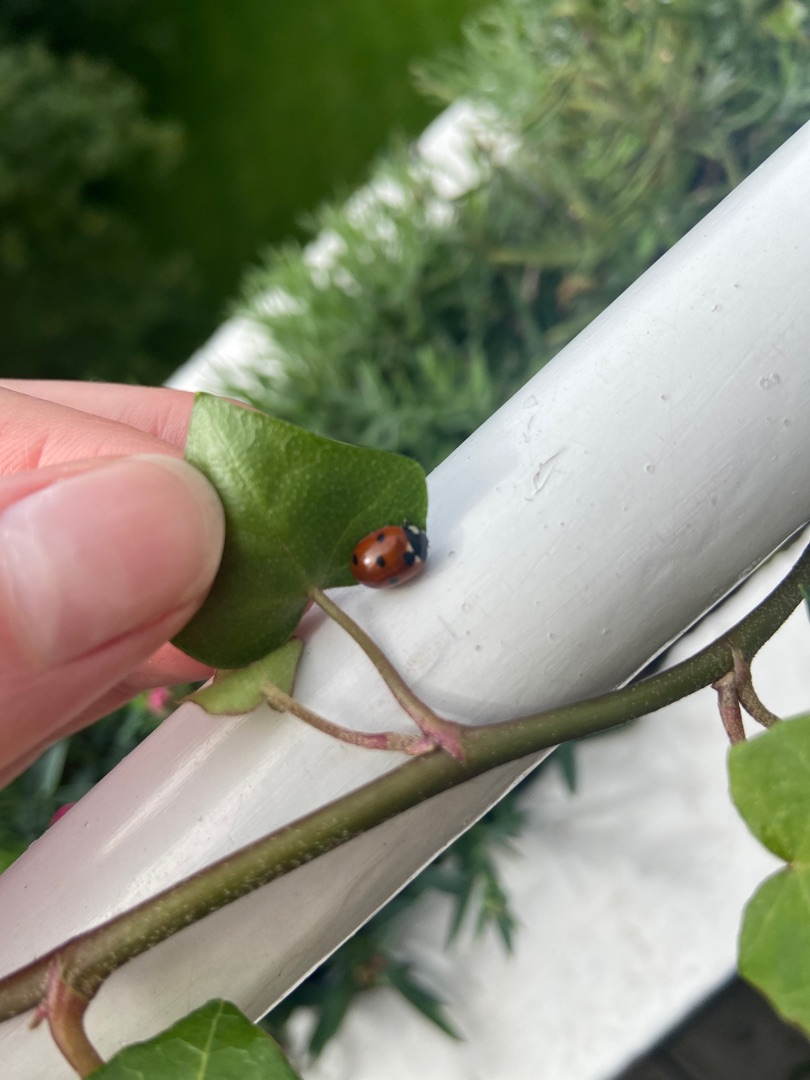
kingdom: Animalia
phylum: Arthropoda
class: Insecta
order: Coleoptera
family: Coccinellidae
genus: Coccinella
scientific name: Coccinella septempunctata
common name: Syvplettet mariehøne
